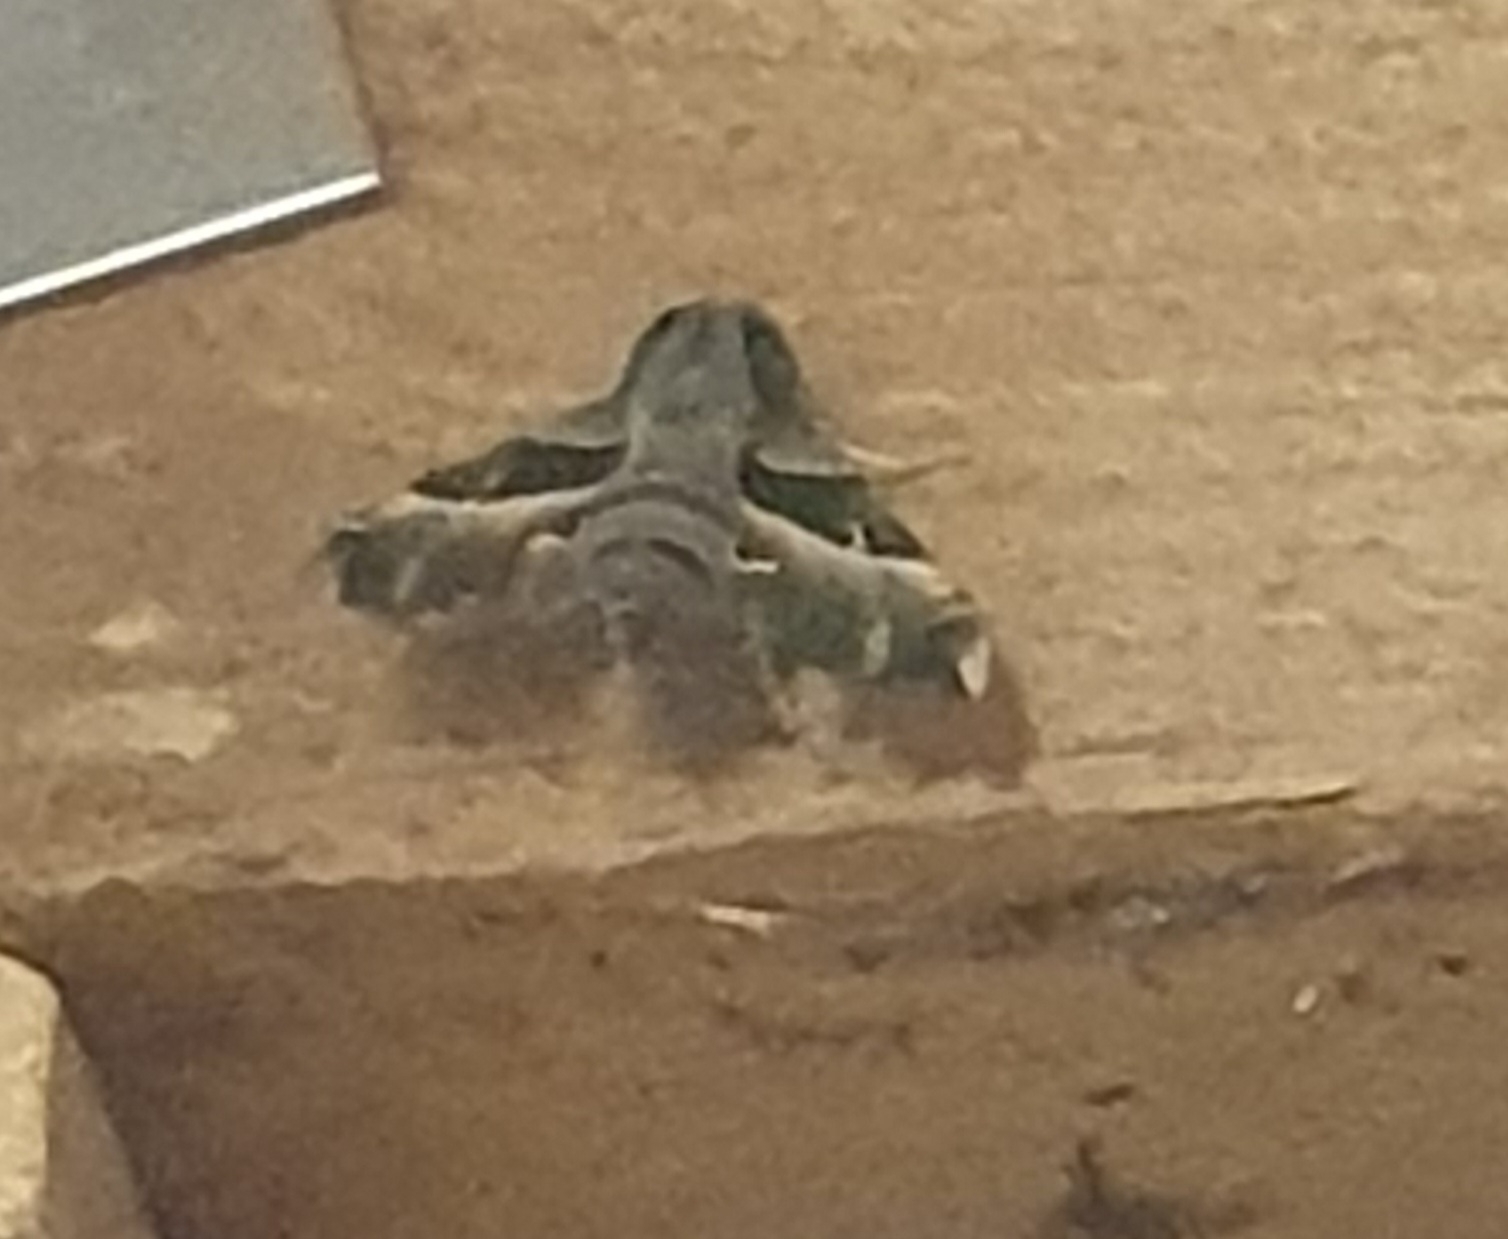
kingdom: Animalia
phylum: Arthropoda
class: Insecta
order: Lepidoptera
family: Sphingidae
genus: Proserpinus
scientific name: Proserpinus proserpina
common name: Natlyssværmer
